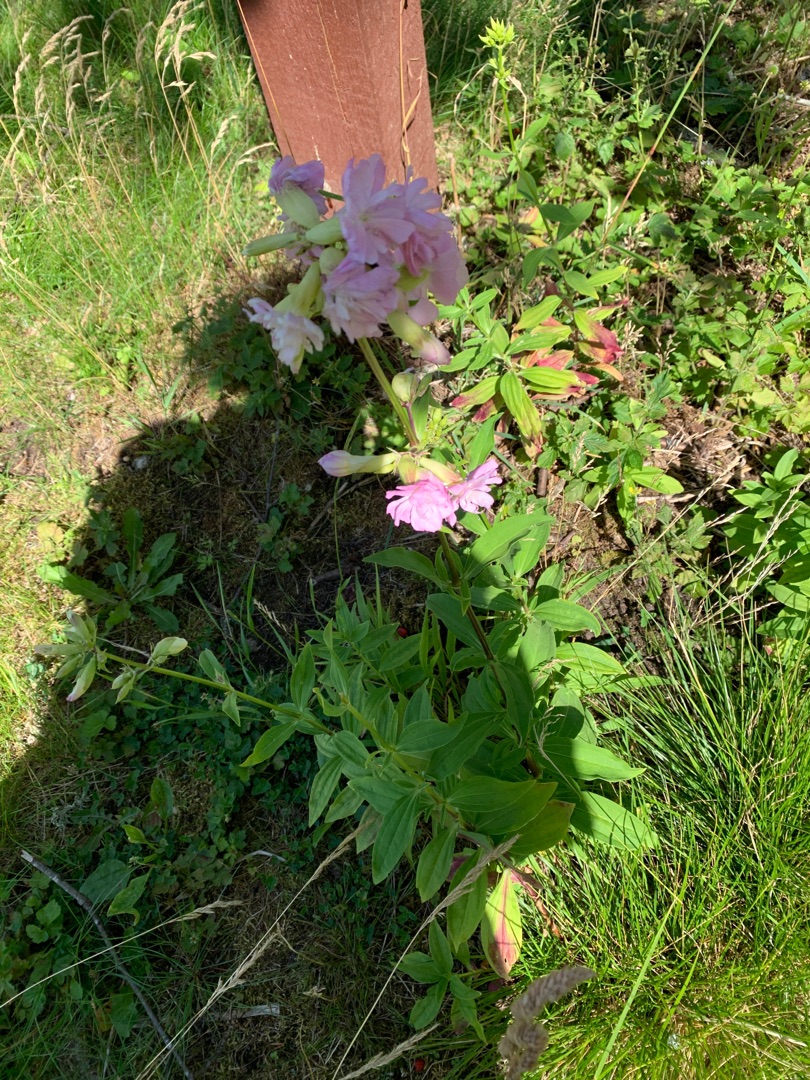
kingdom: Plantae
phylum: Tracheophyta
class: Magnoliopsida
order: Caryophyllales
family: Caryophyllaceae
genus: Saponaria
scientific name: Saponaria officinalis
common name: Sæbeurt
